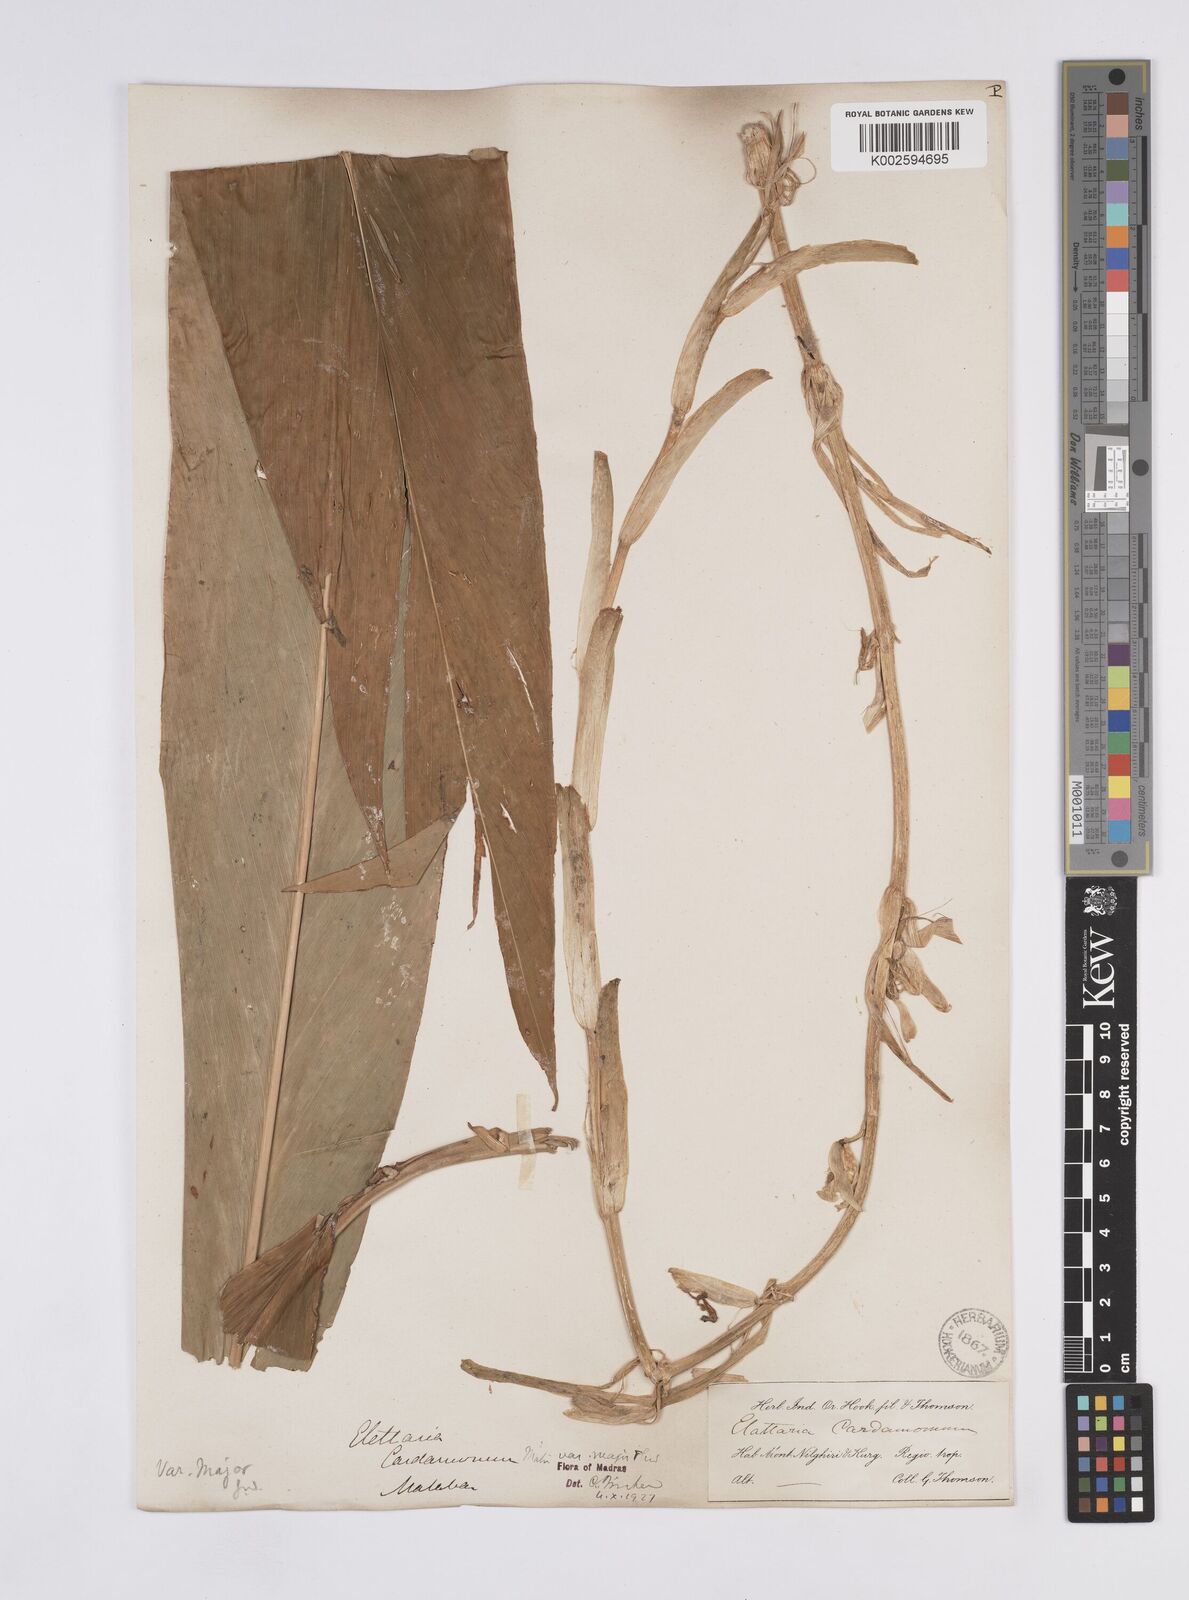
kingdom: Plantae
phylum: Tracheophyta
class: Liliopsida
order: Zingiberales
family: Zingiberaceae
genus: Elettaria
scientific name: Elettaria ensal
